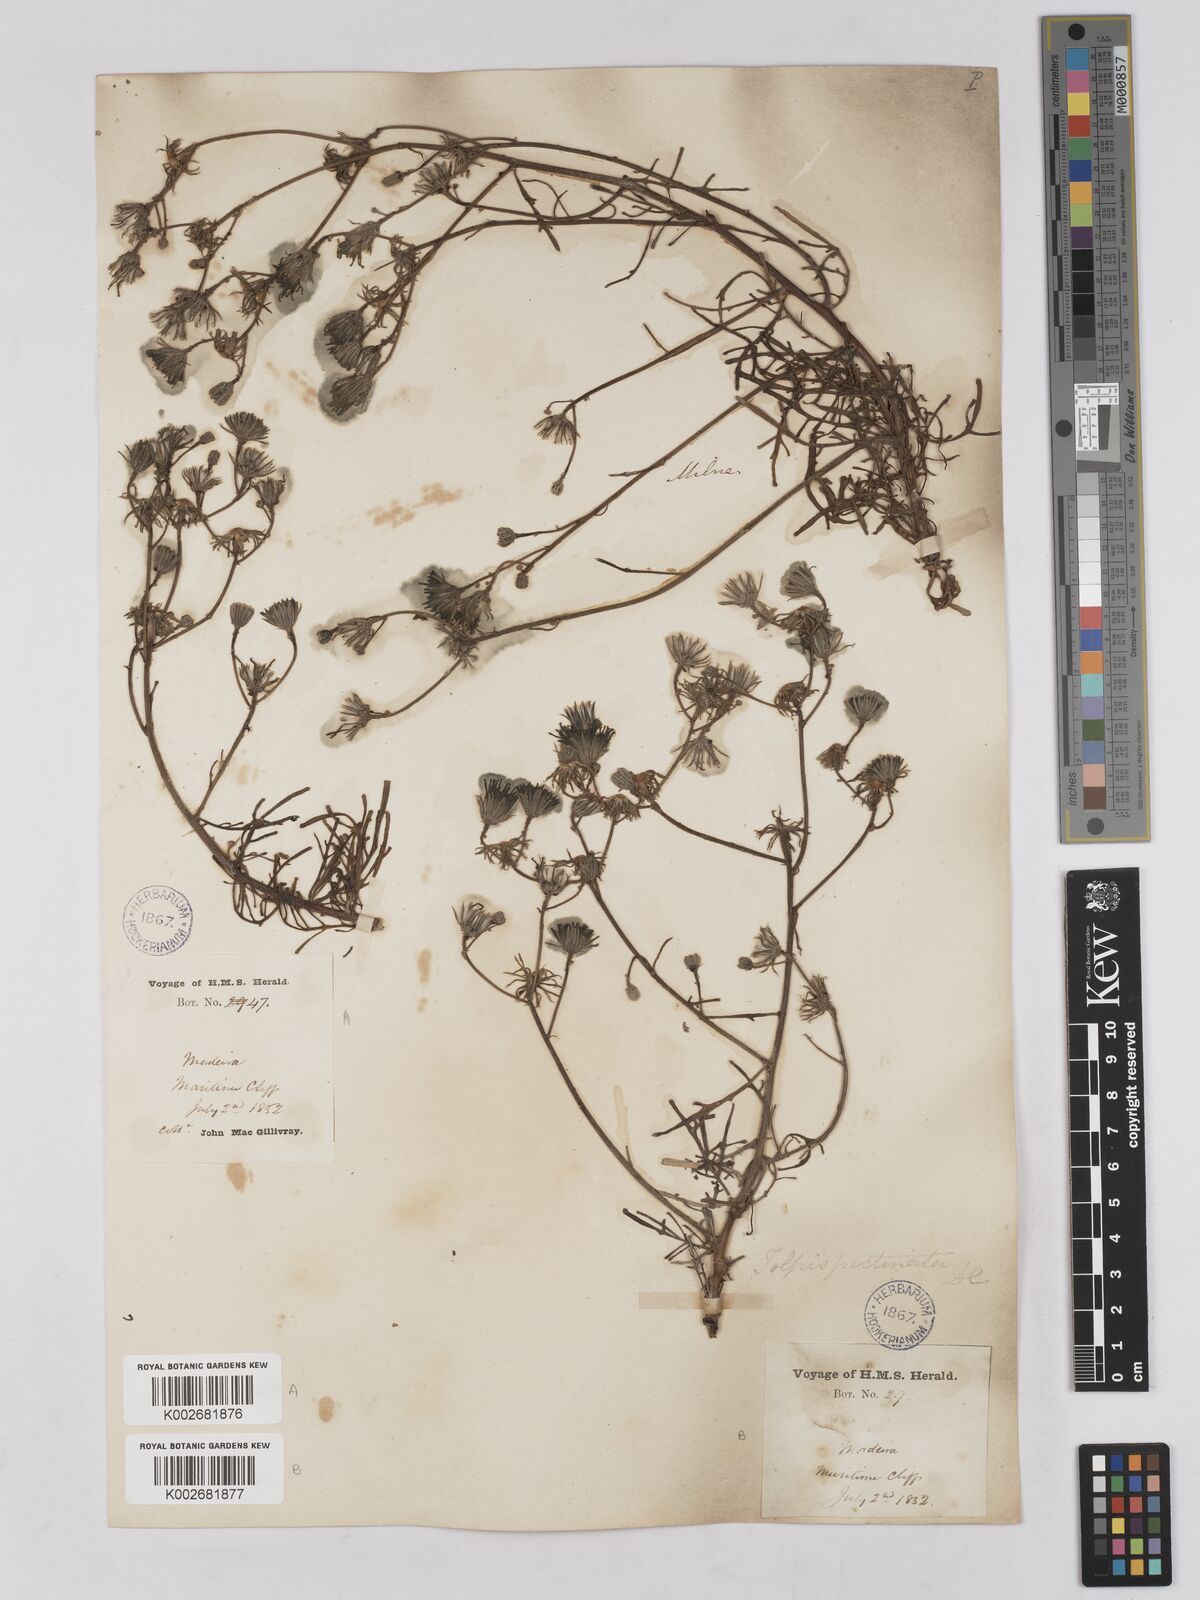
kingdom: Plantae
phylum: Tracheophyta
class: Magnoliopsida
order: Asterales
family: Asteraceae
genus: Tolpis
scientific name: Tolpis
